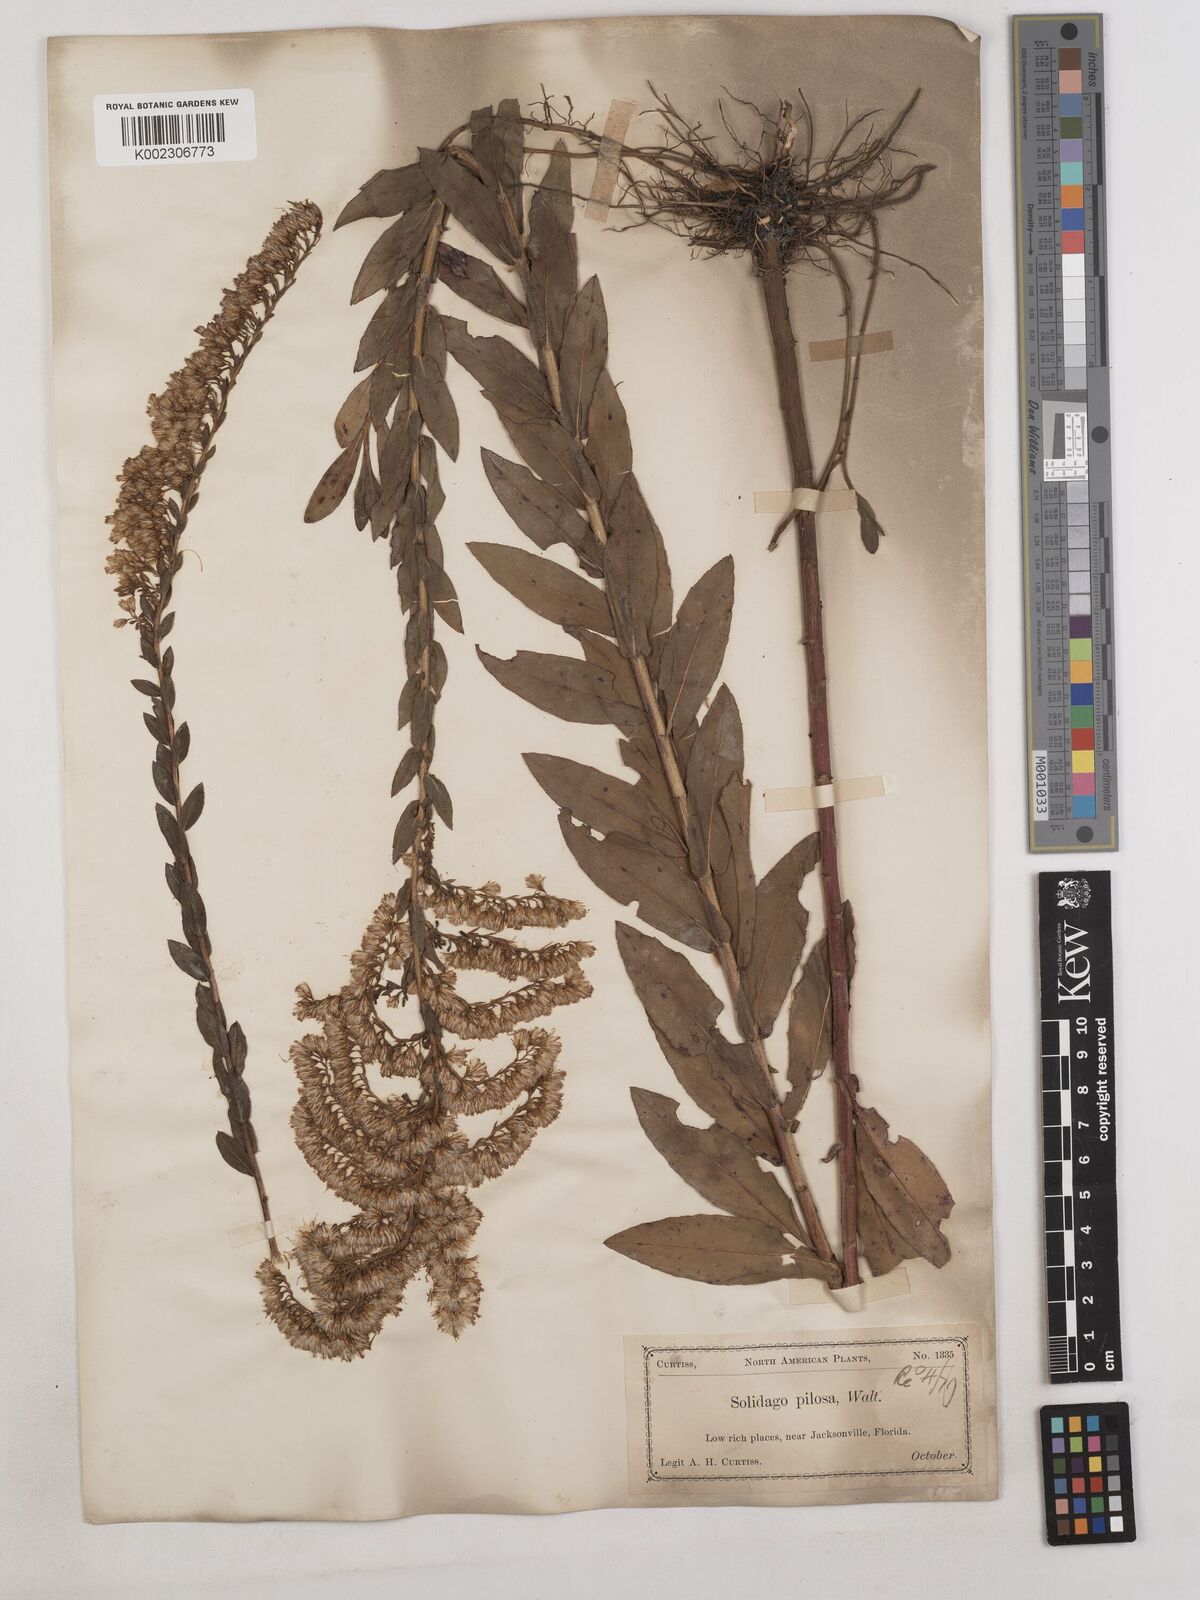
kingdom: Plantae
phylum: Tracheophyta
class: Magnoliopsida
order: Asterales
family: Asteraceae
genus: Solidago
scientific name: Solidago fistulosa
